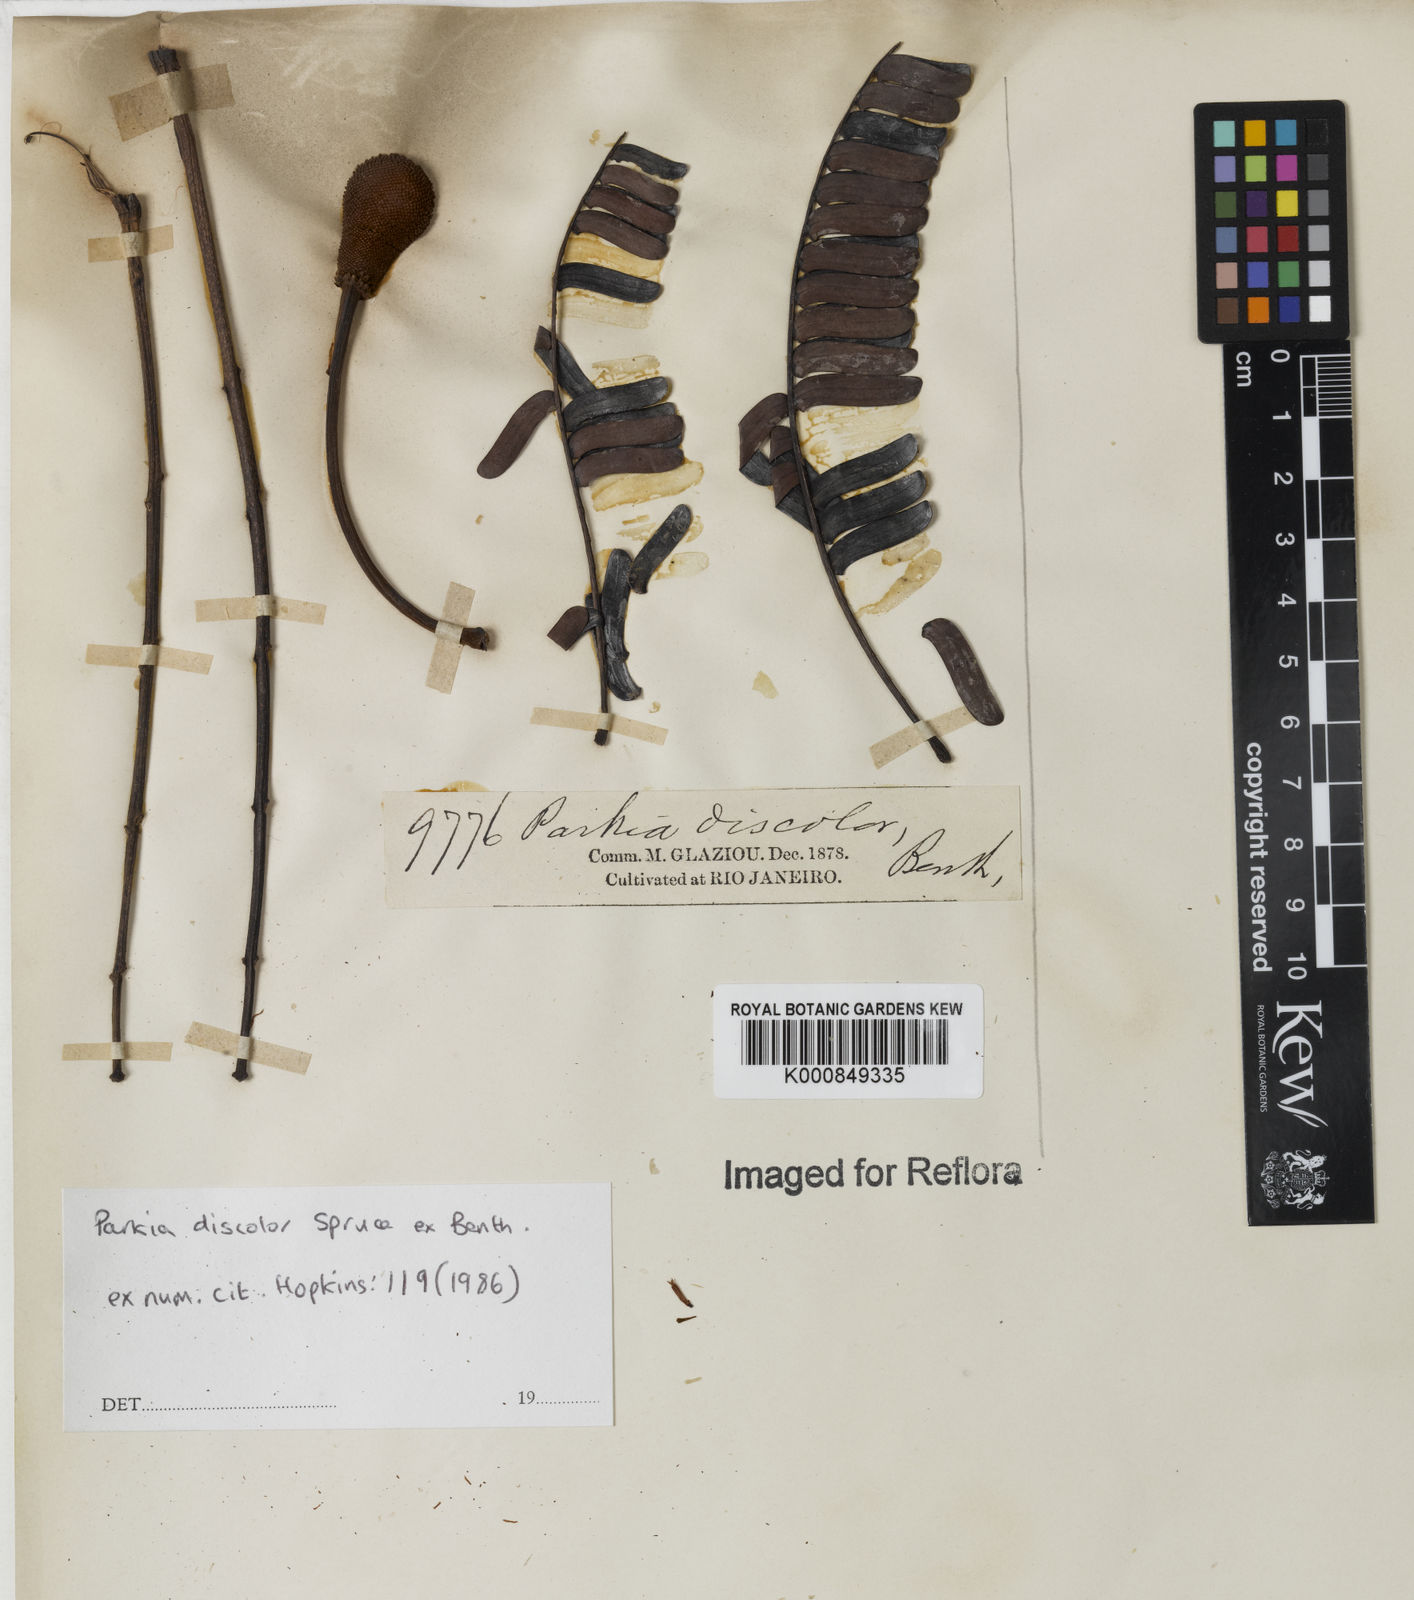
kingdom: Plantae
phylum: Tracheophyta
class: Magnoliopsida
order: Fabales
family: Fabaceae
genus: Parkia
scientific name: Parkia discolor
